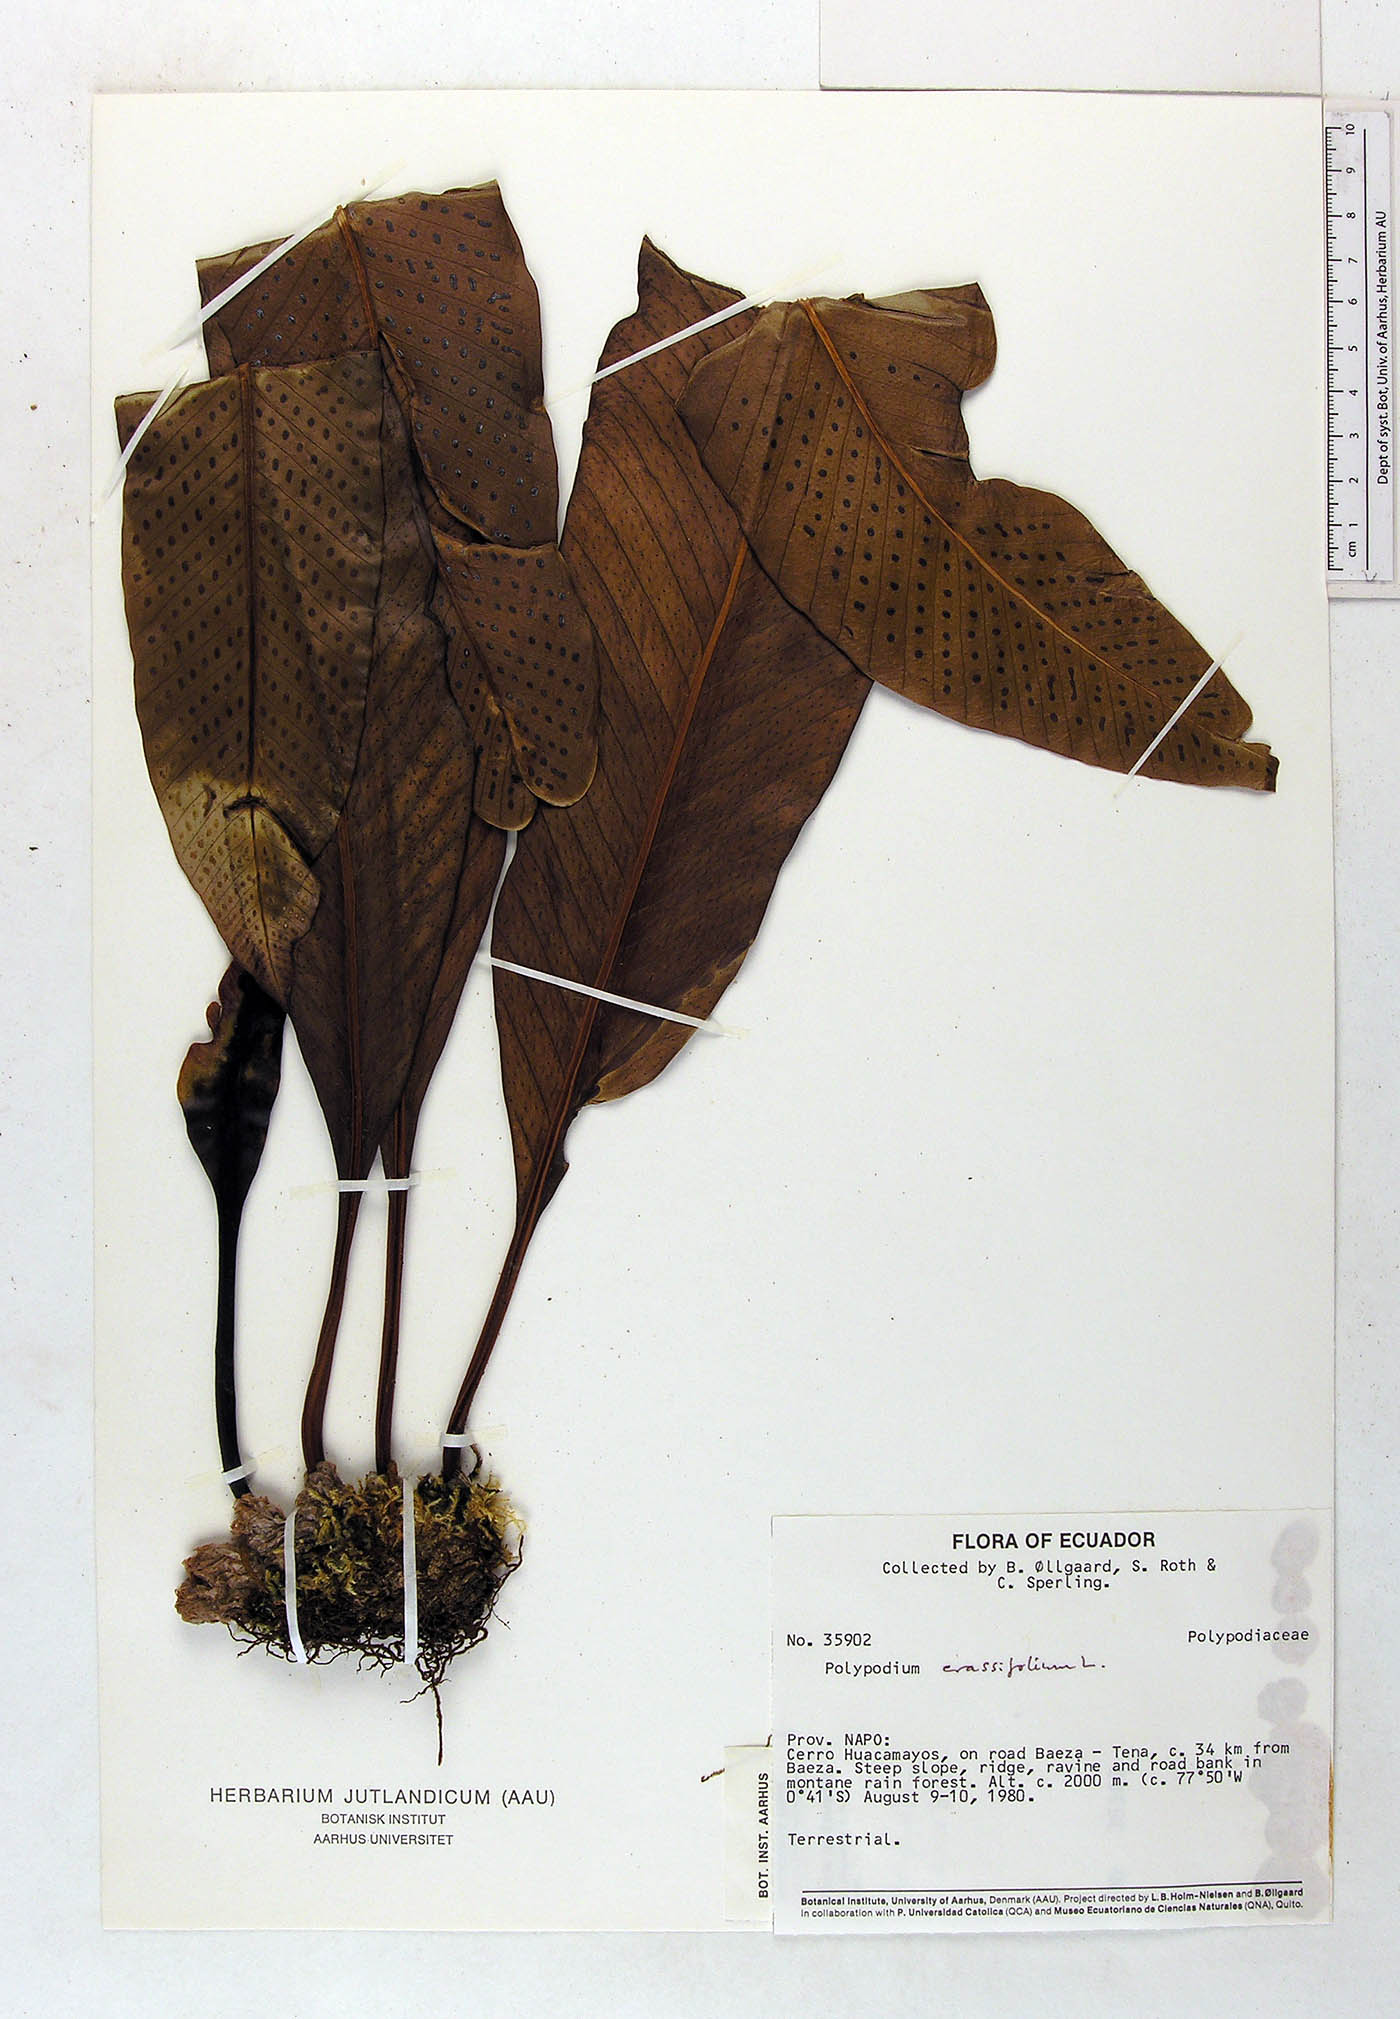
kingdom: Plantae
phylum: Tracheophyta
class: Polypodiopsida
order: Polypodiales
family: Polypodiaceae
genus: Niphidium
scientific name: Niphidium crassifolium
